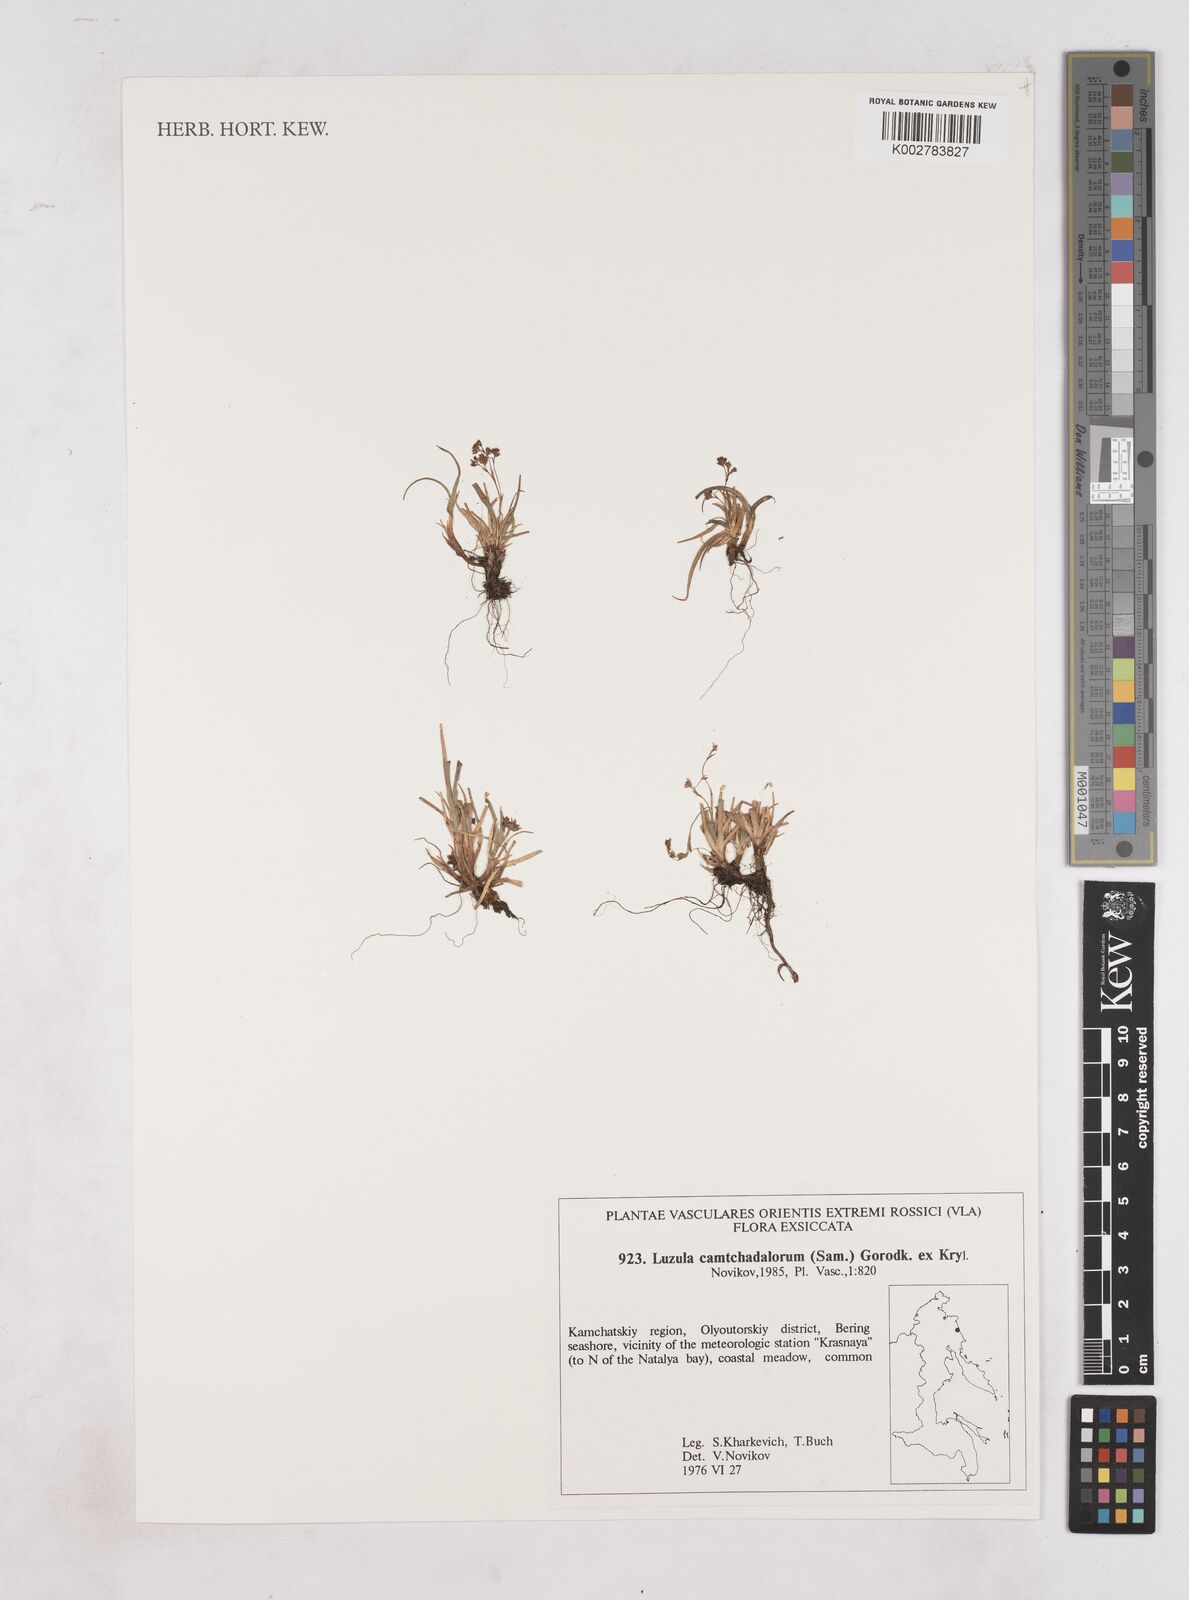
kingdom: Plantae
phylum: Tracheophyta
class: Liliopsida
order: Poales
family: Juncaceae
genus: Luzula
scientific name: Luzula
